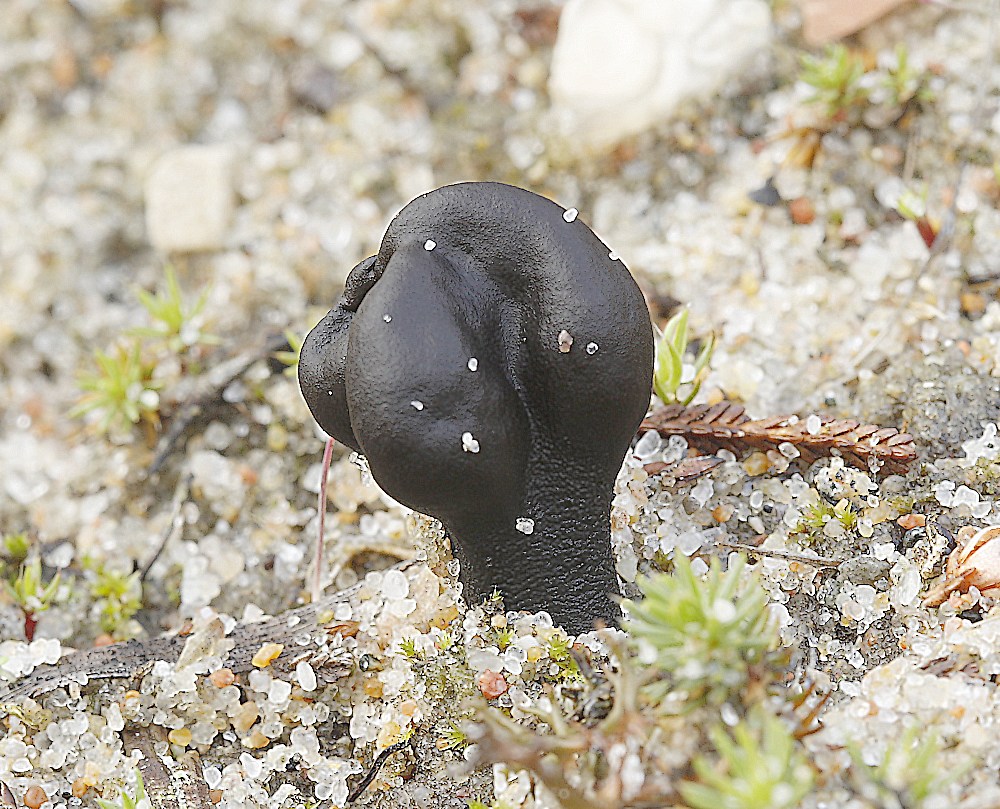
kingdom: Fungi
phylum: Ascomycota
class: Geoglossomycetes
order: Geoglossales
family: Geoglossaceae
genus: Sabuloglossum
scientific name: Sabuloglossum arenarium
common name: klit-jordtunge
